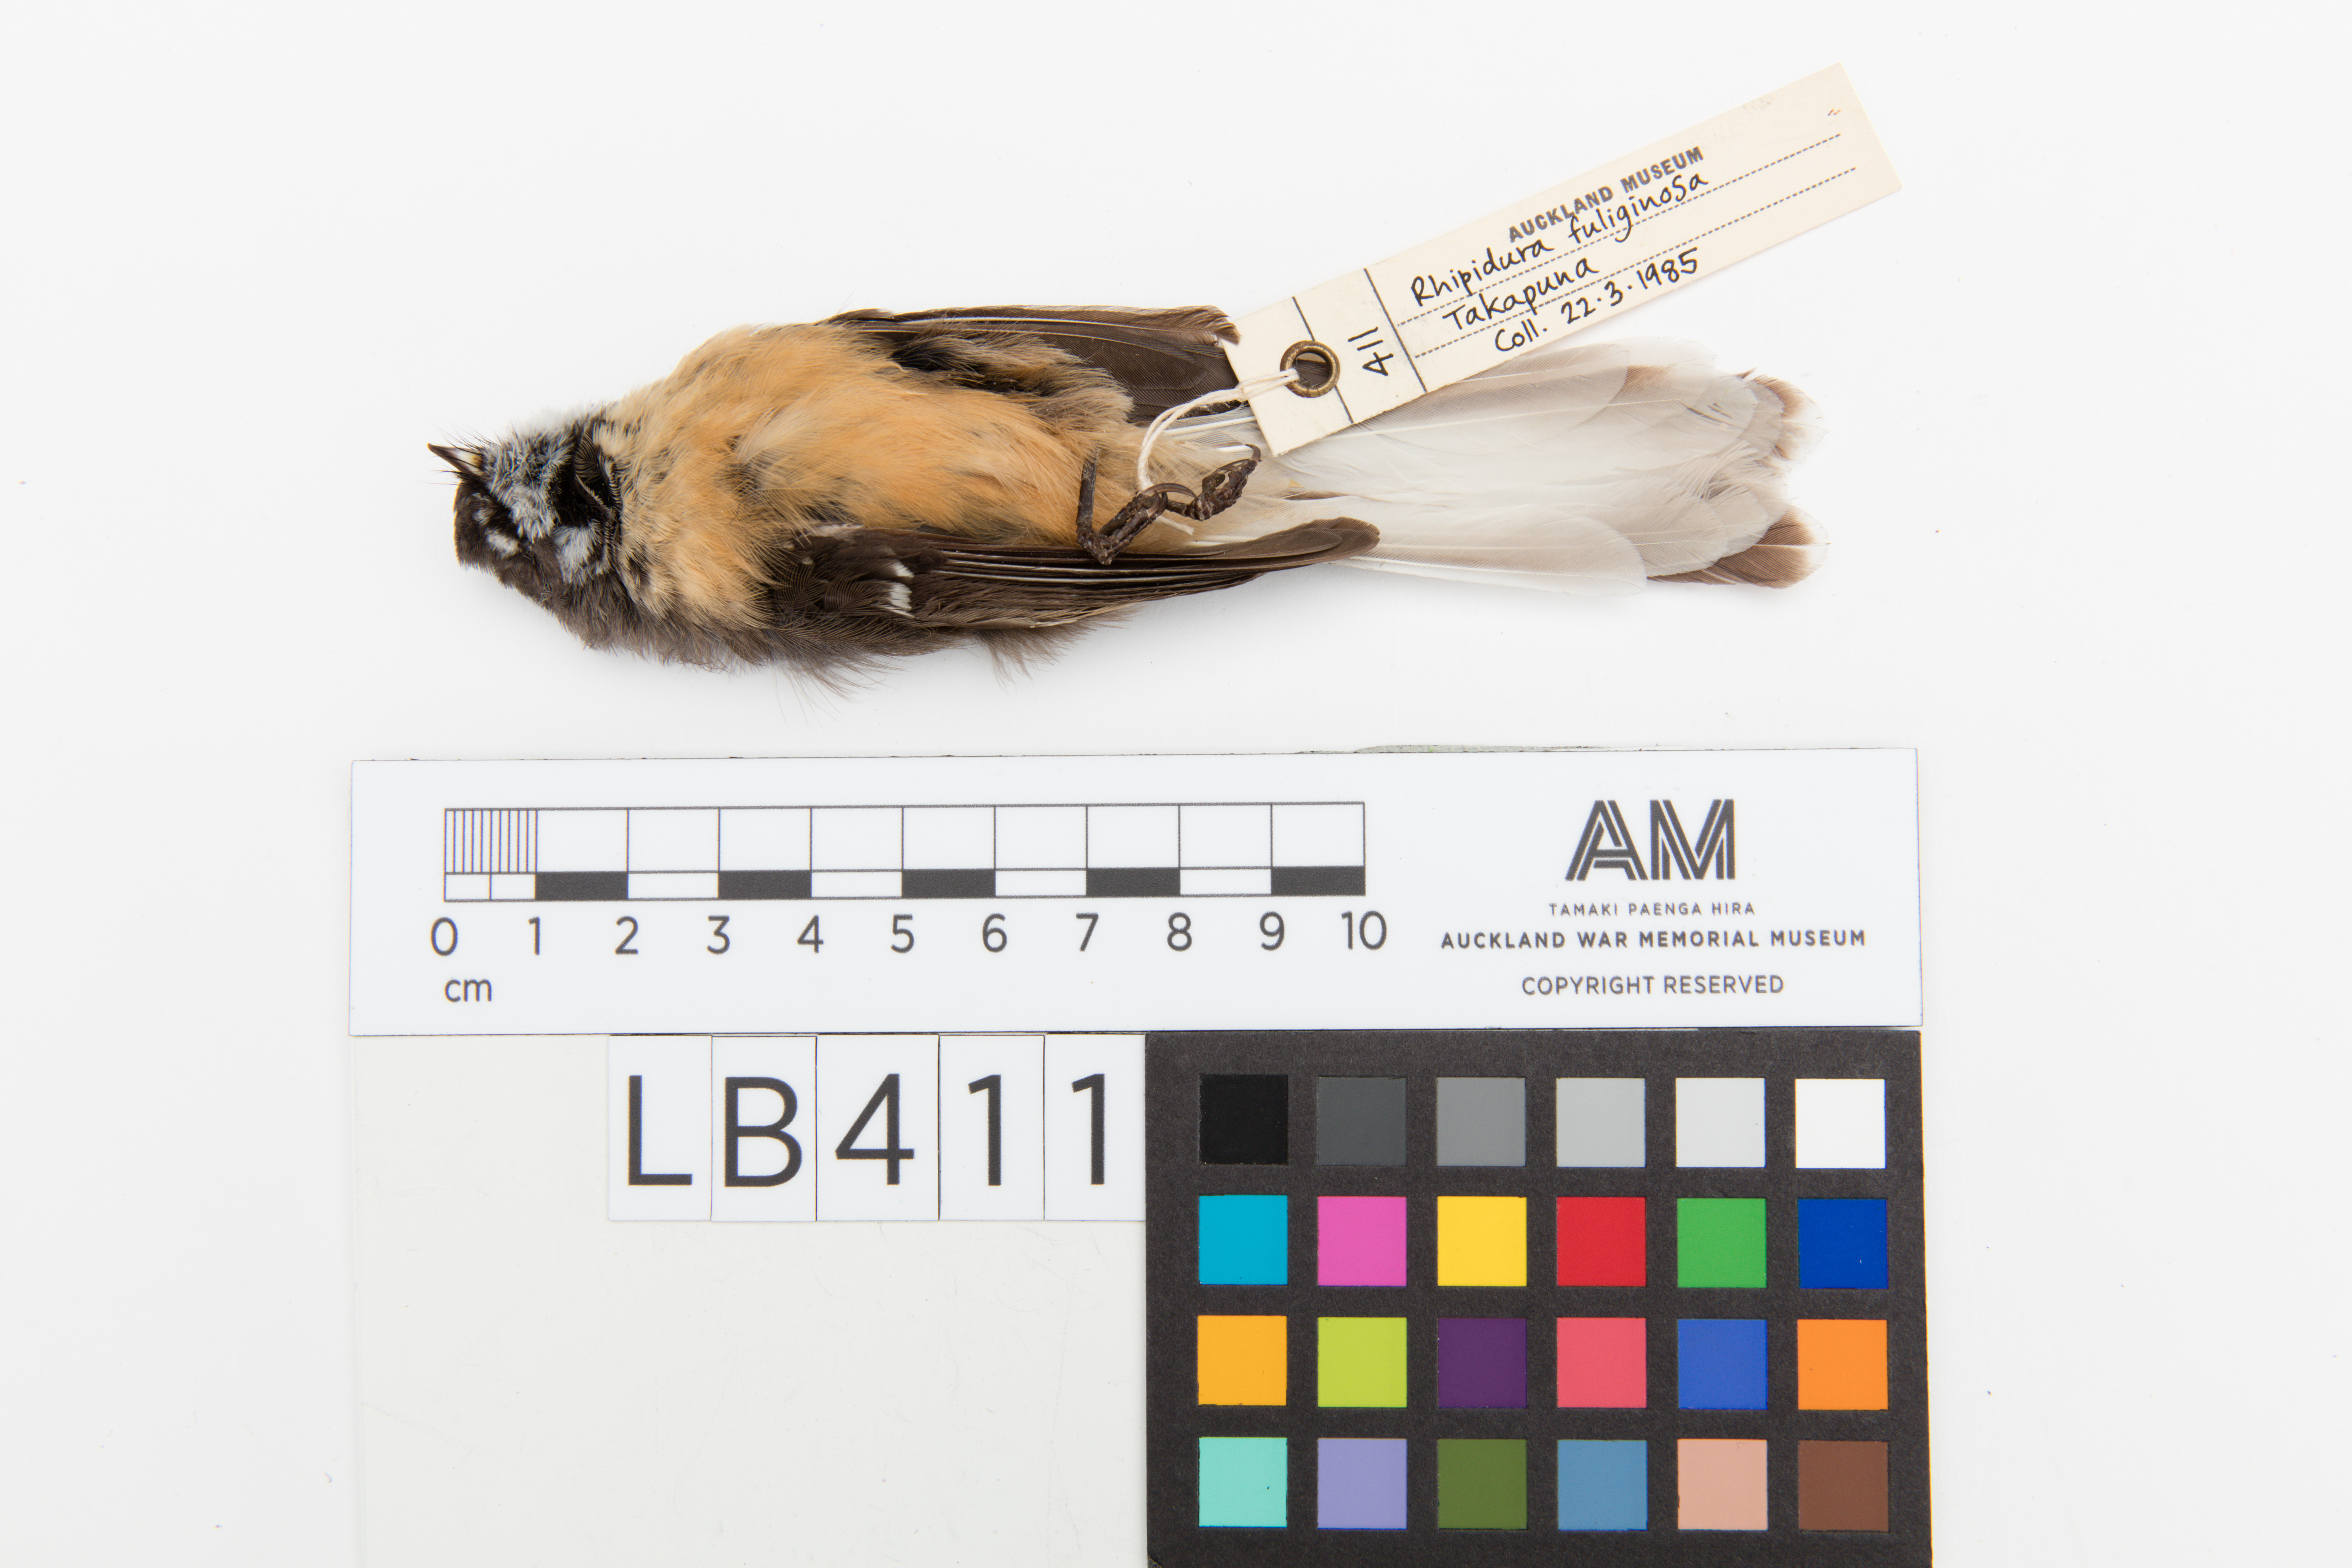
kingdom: Animalia
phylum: Chordata
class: Aves
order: Passeriformes
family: Rhipiduridae
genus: Rhipidura
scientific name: Rhipidura fuliginosa
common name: New zealand fantail
